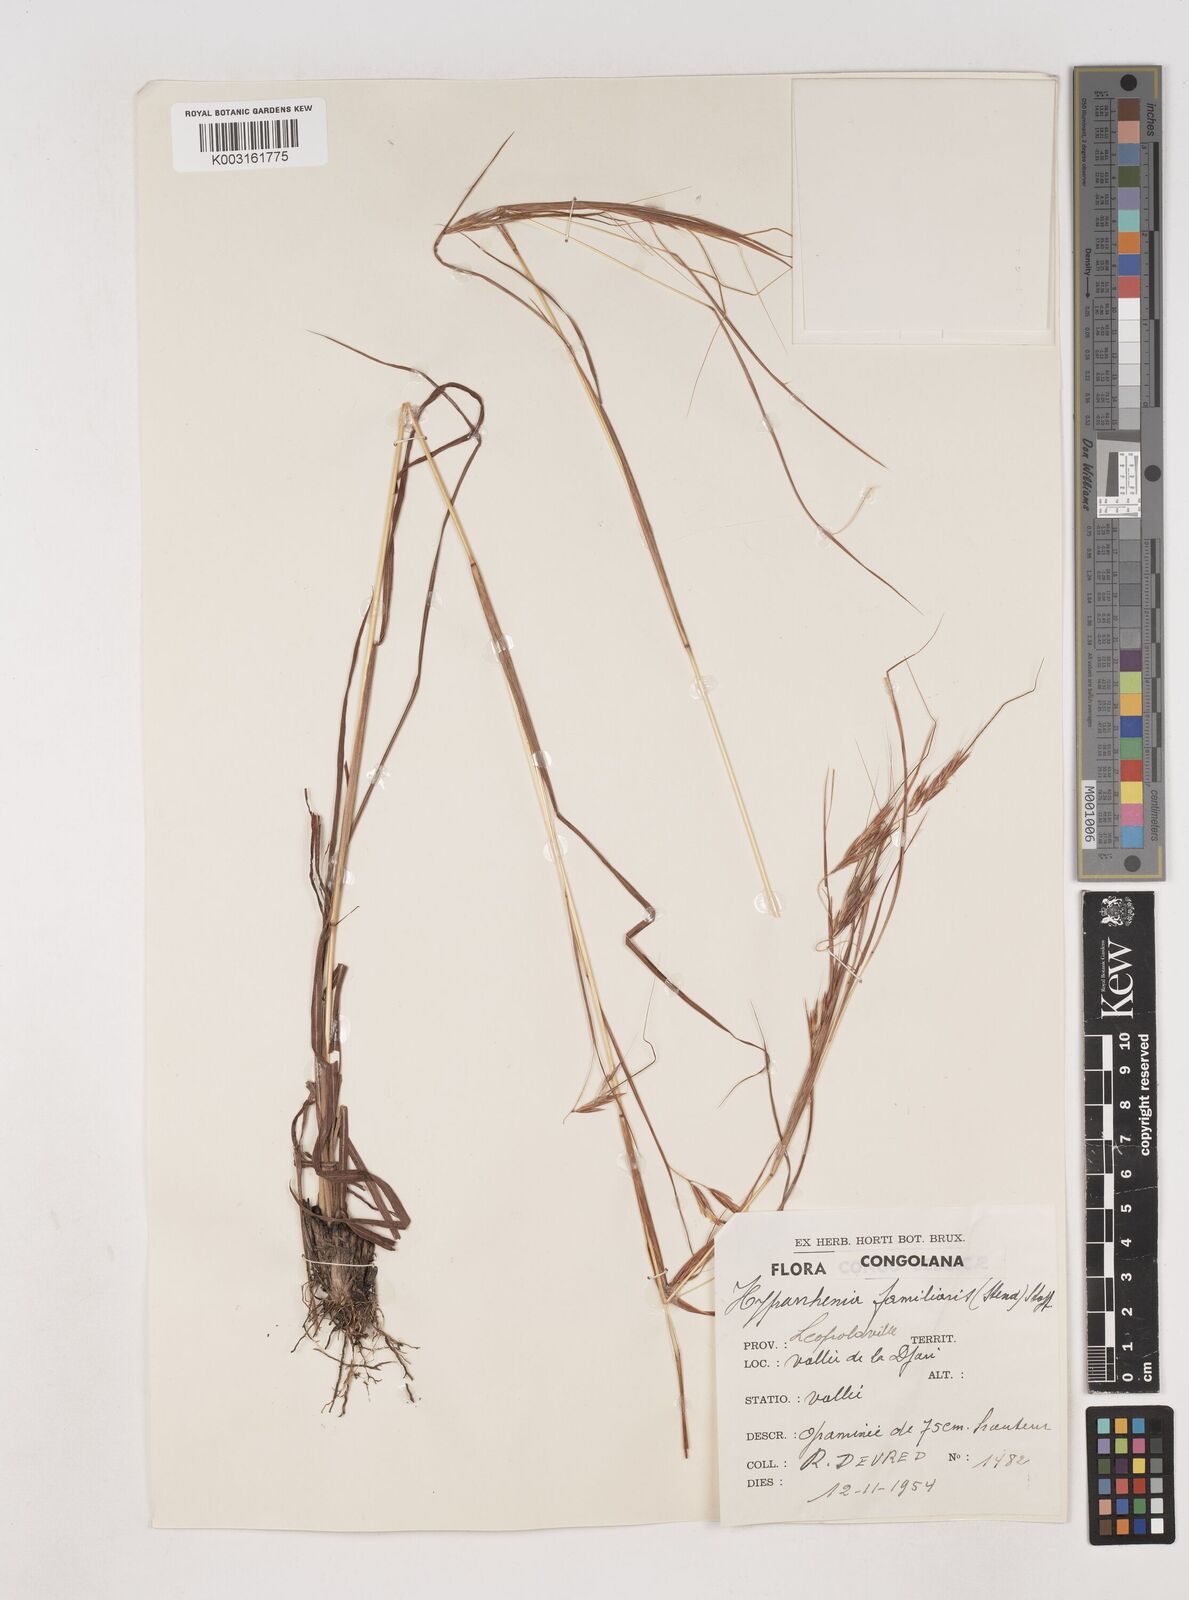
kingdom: Plantae
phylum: Tracheophyta
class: Liliopsida
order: Poales
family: Poaceae
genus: Hyparrhenia
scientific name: Hyparrhenia familiaris
